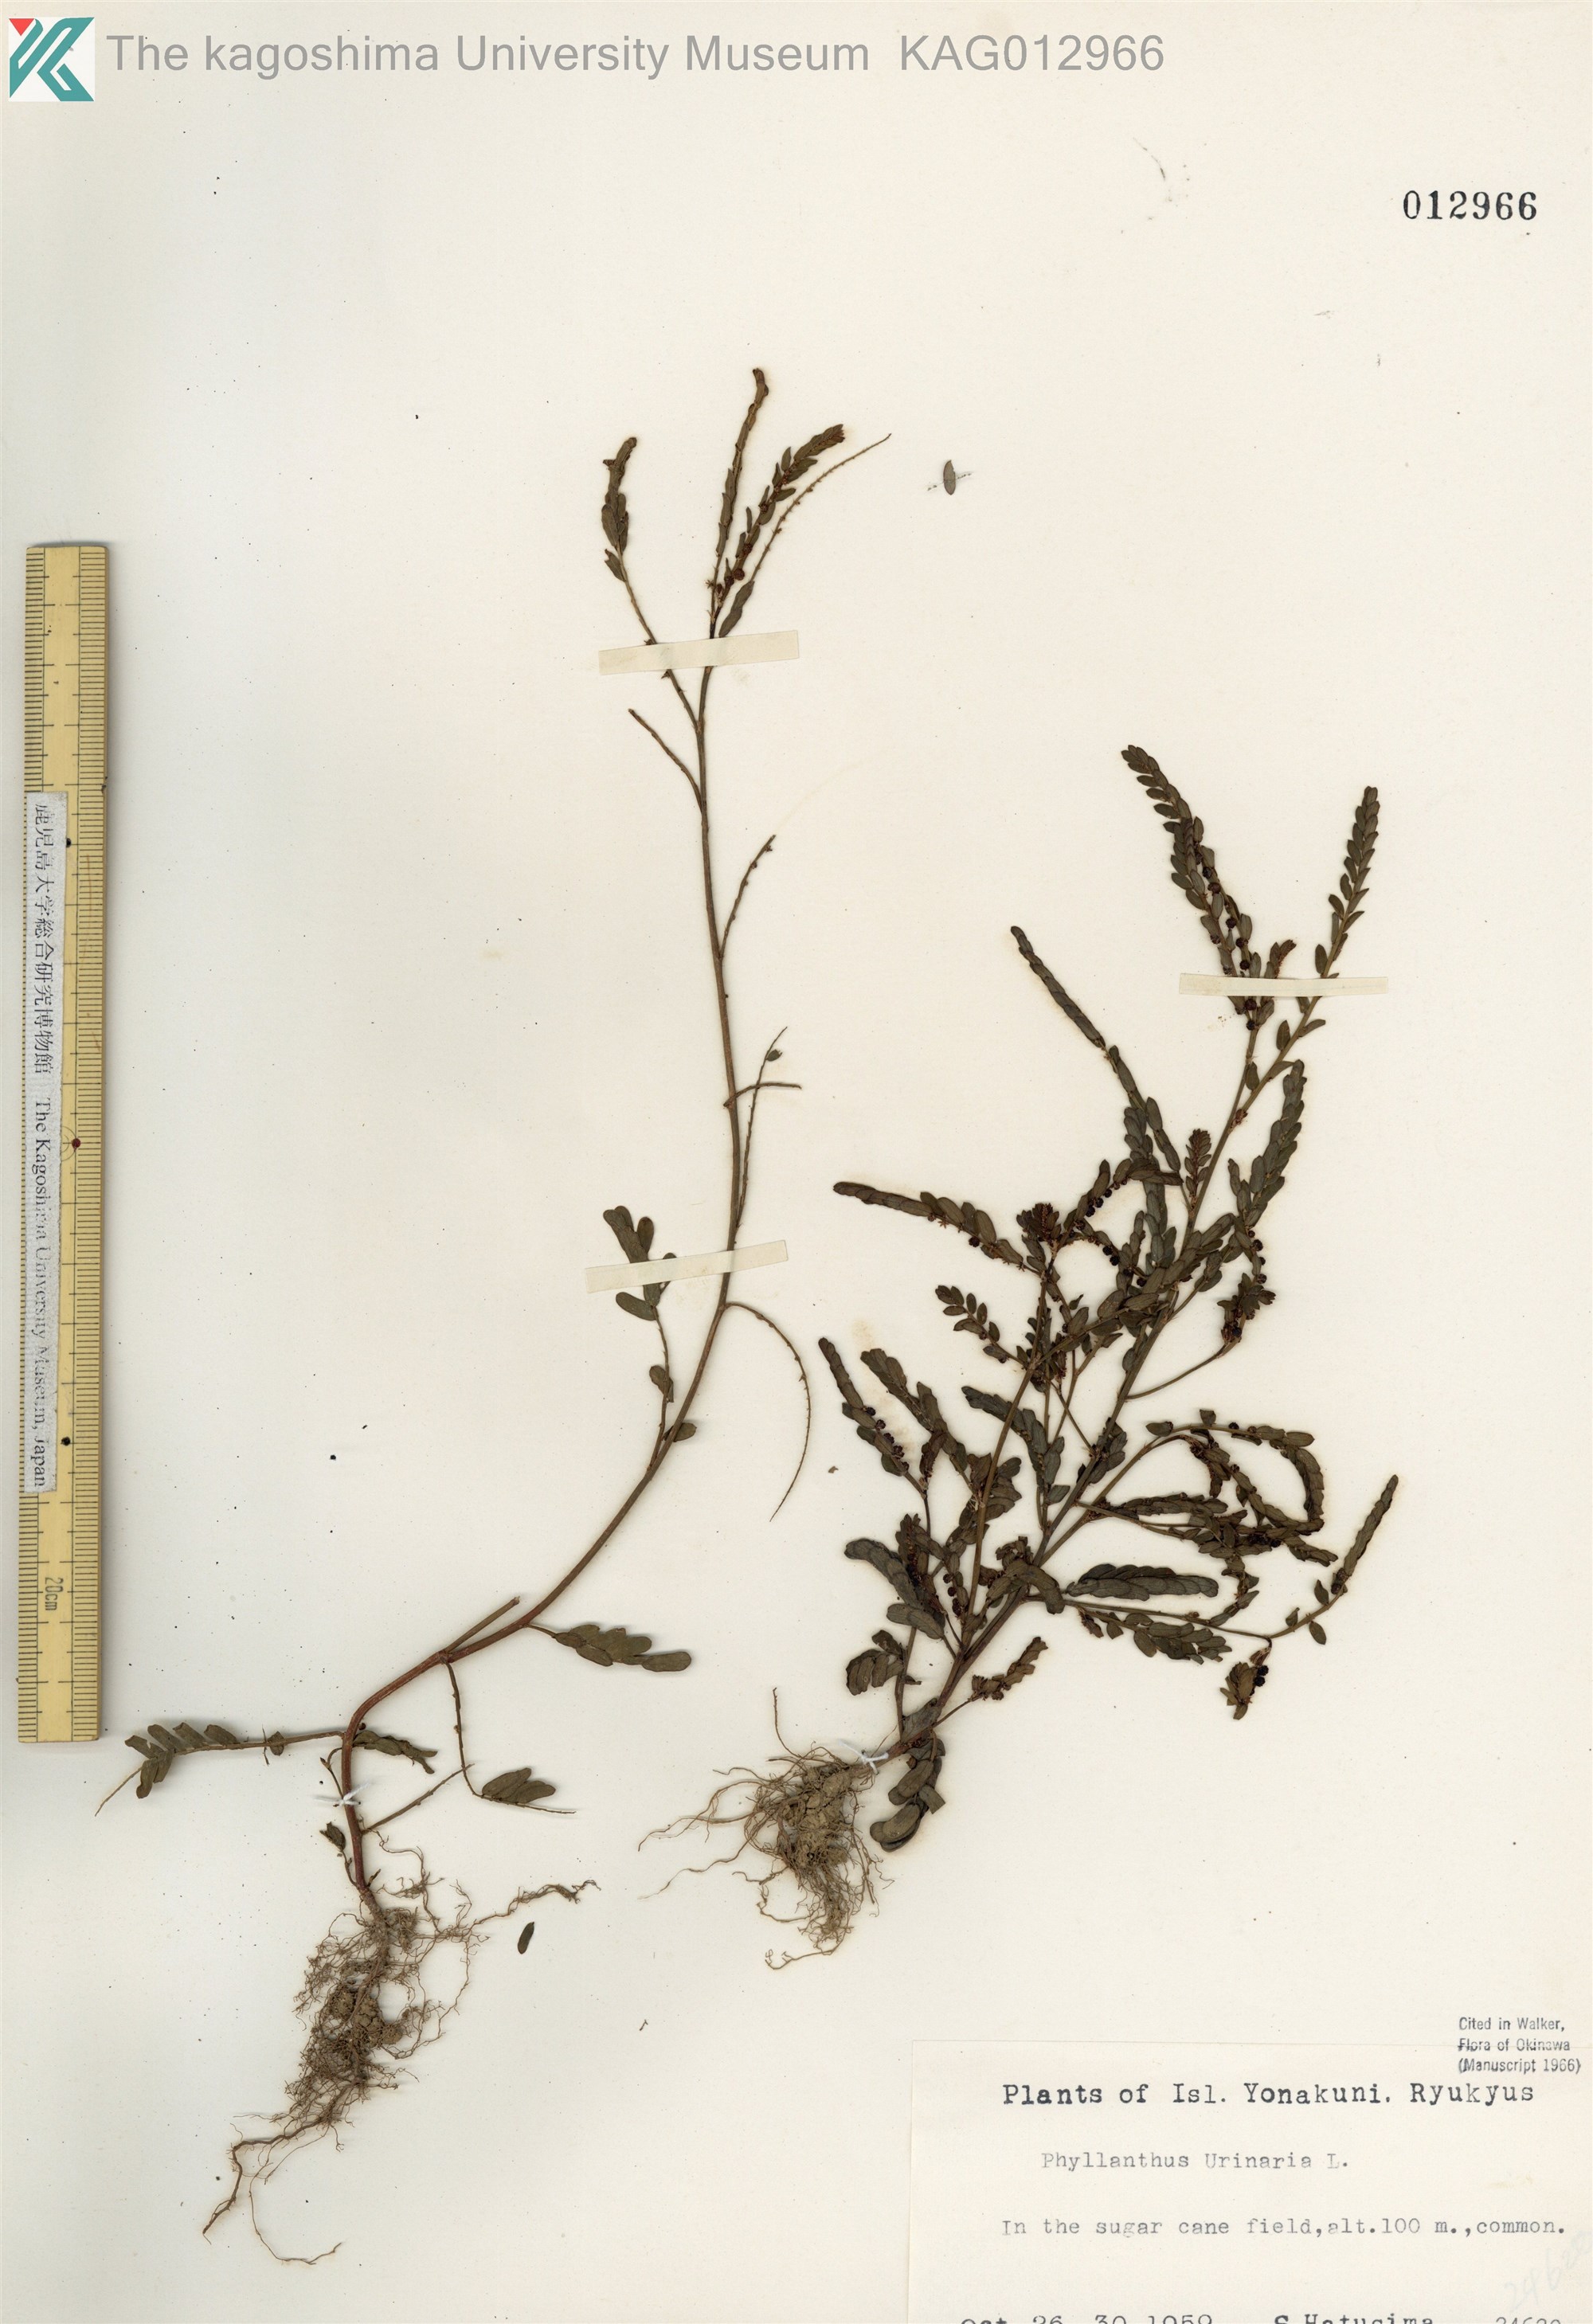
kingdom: Plantae
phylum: Tracheophyta
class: Magnoliopsida
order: Malpighiales
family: Phyllanthaceae
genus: Phyllanthus
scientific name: Phyllanthus urinaria
